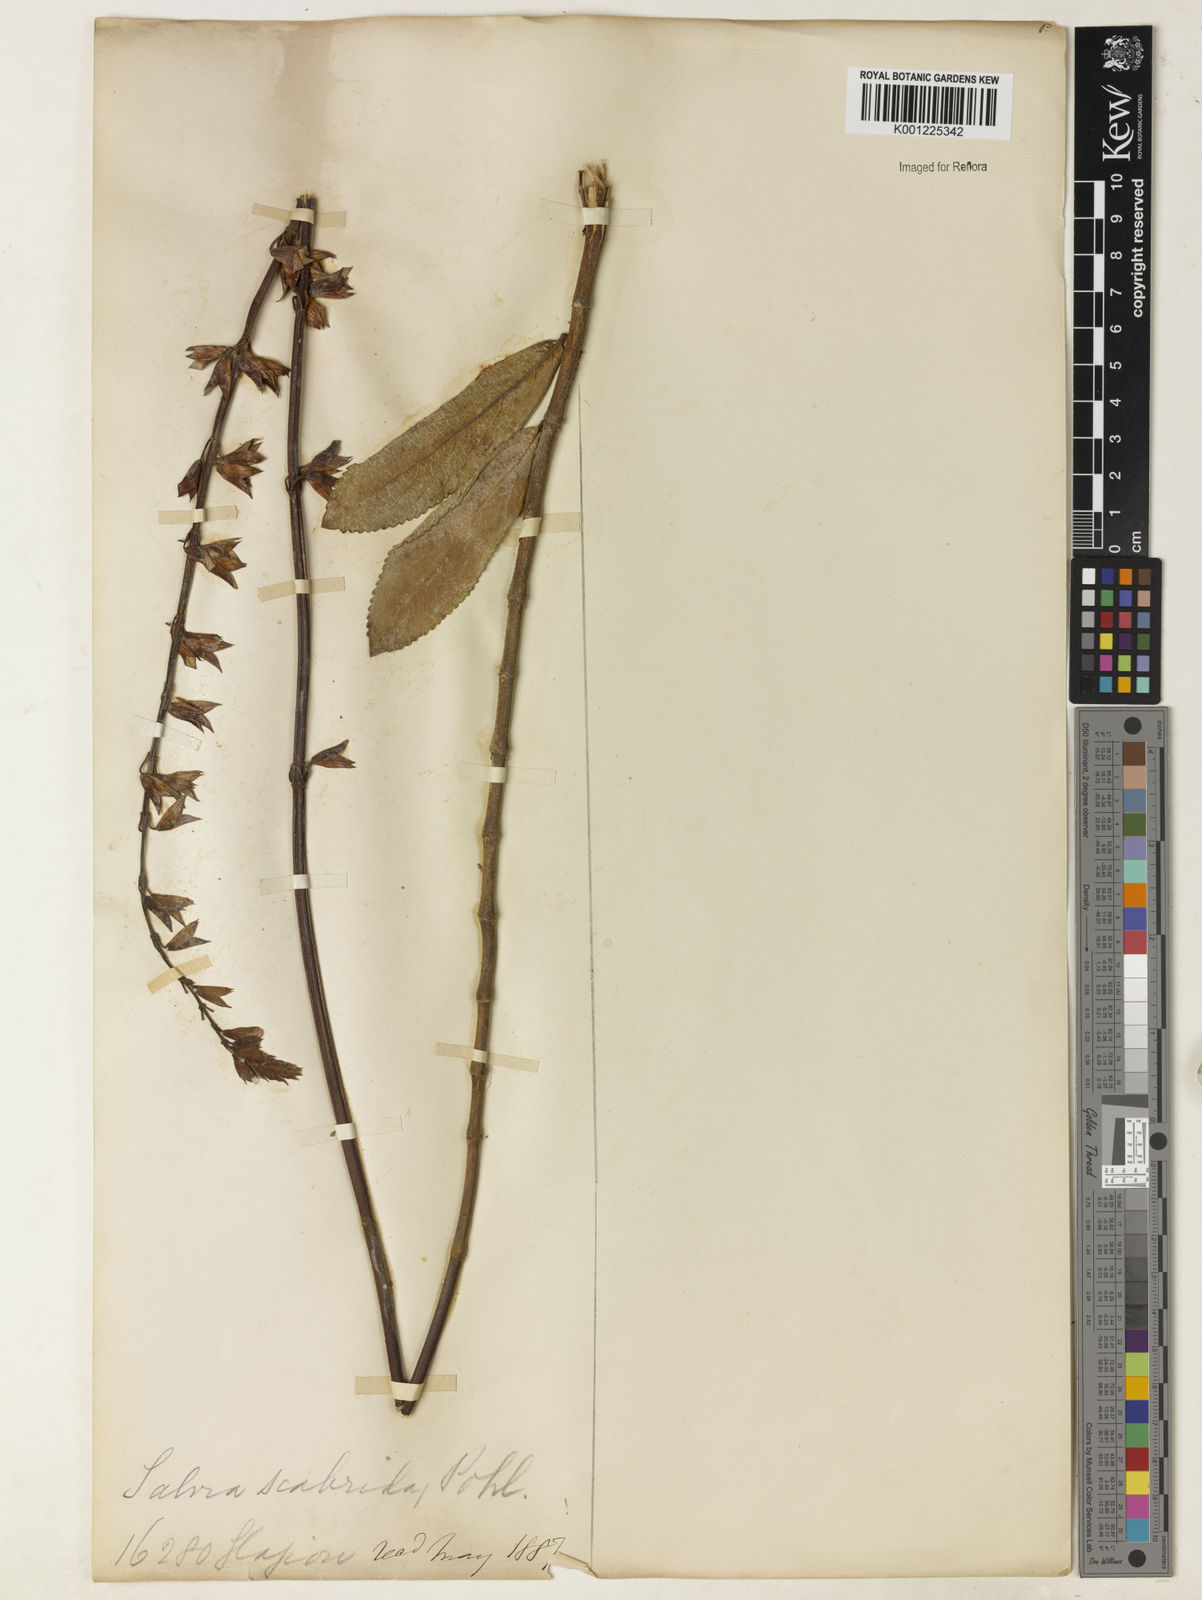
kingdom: Plantae
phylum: Tracheophyta
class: Magnoliopsida
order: Lamiales
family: Lamiaceae
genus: Salvia
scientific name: Salvia scabrida
